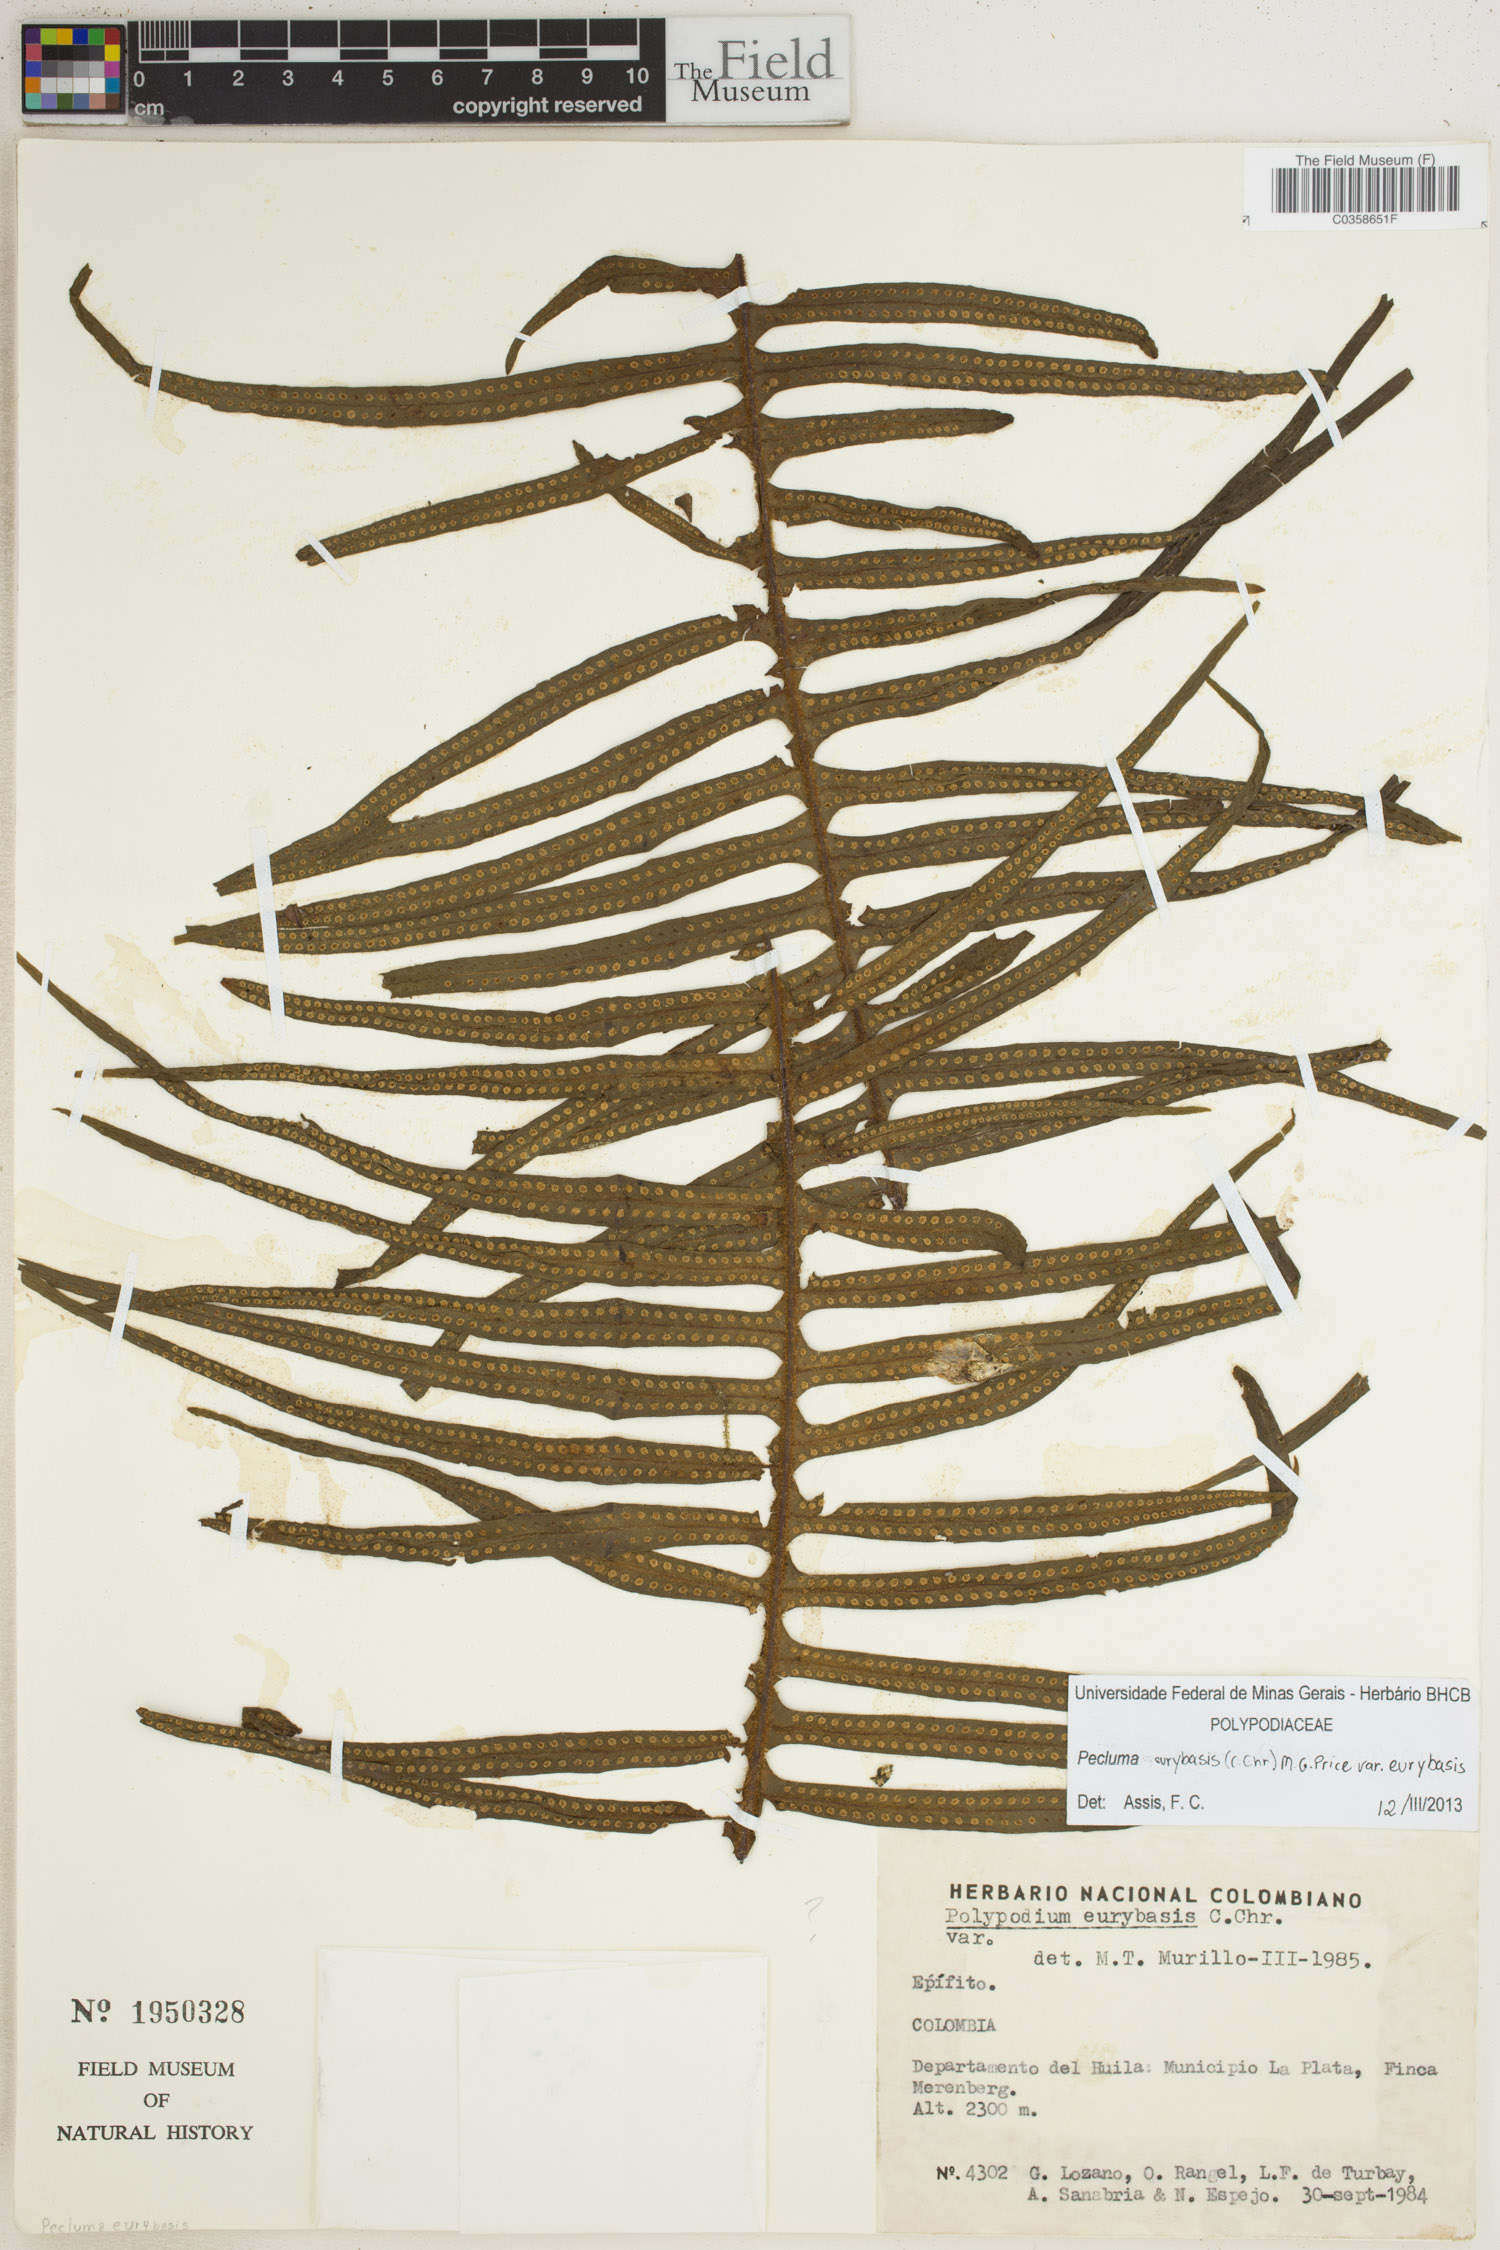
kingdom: Plantae
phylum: Tracheophyta
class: Polypodiopsida
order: Polypodiales
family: Polypodiaceae
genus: Pecluma
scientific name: Pecluma eurybasis
